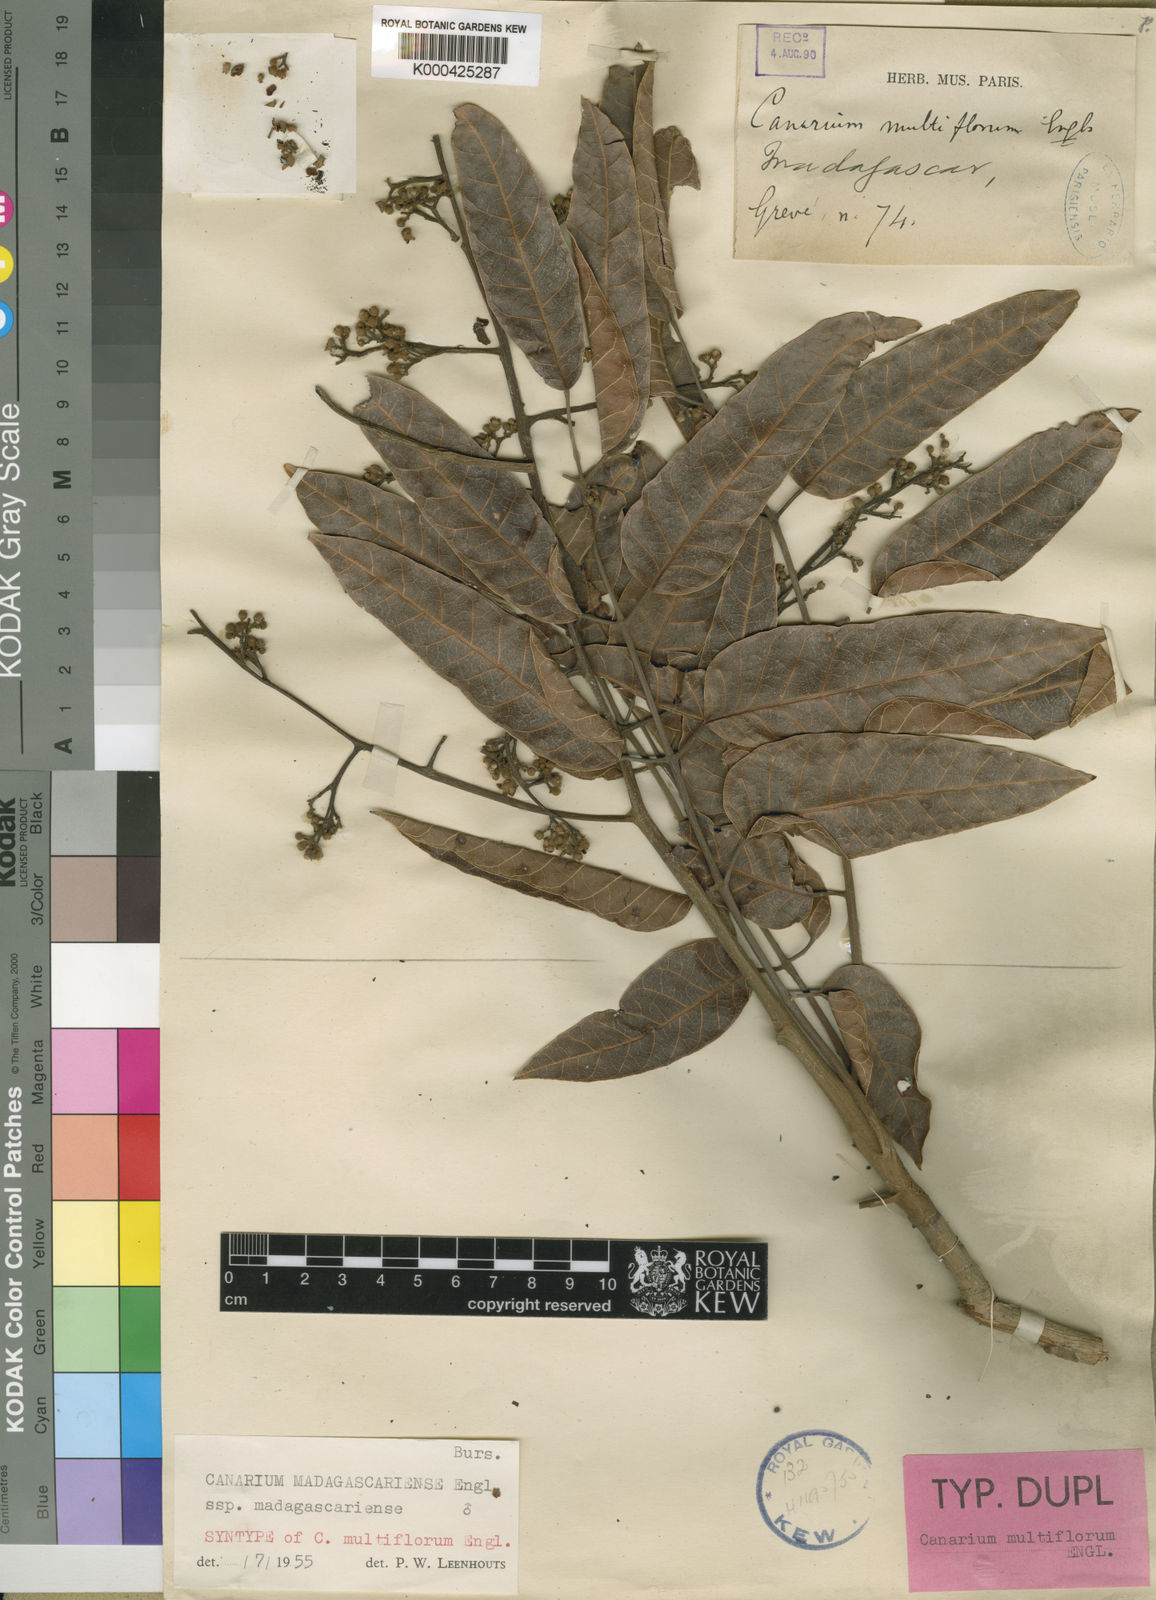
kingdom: Plantae
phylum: Tracheophyta
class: Magnoliopsida
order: Sapindales
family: Burseraceae
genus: Canarium
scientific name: Canarium madagascariense
